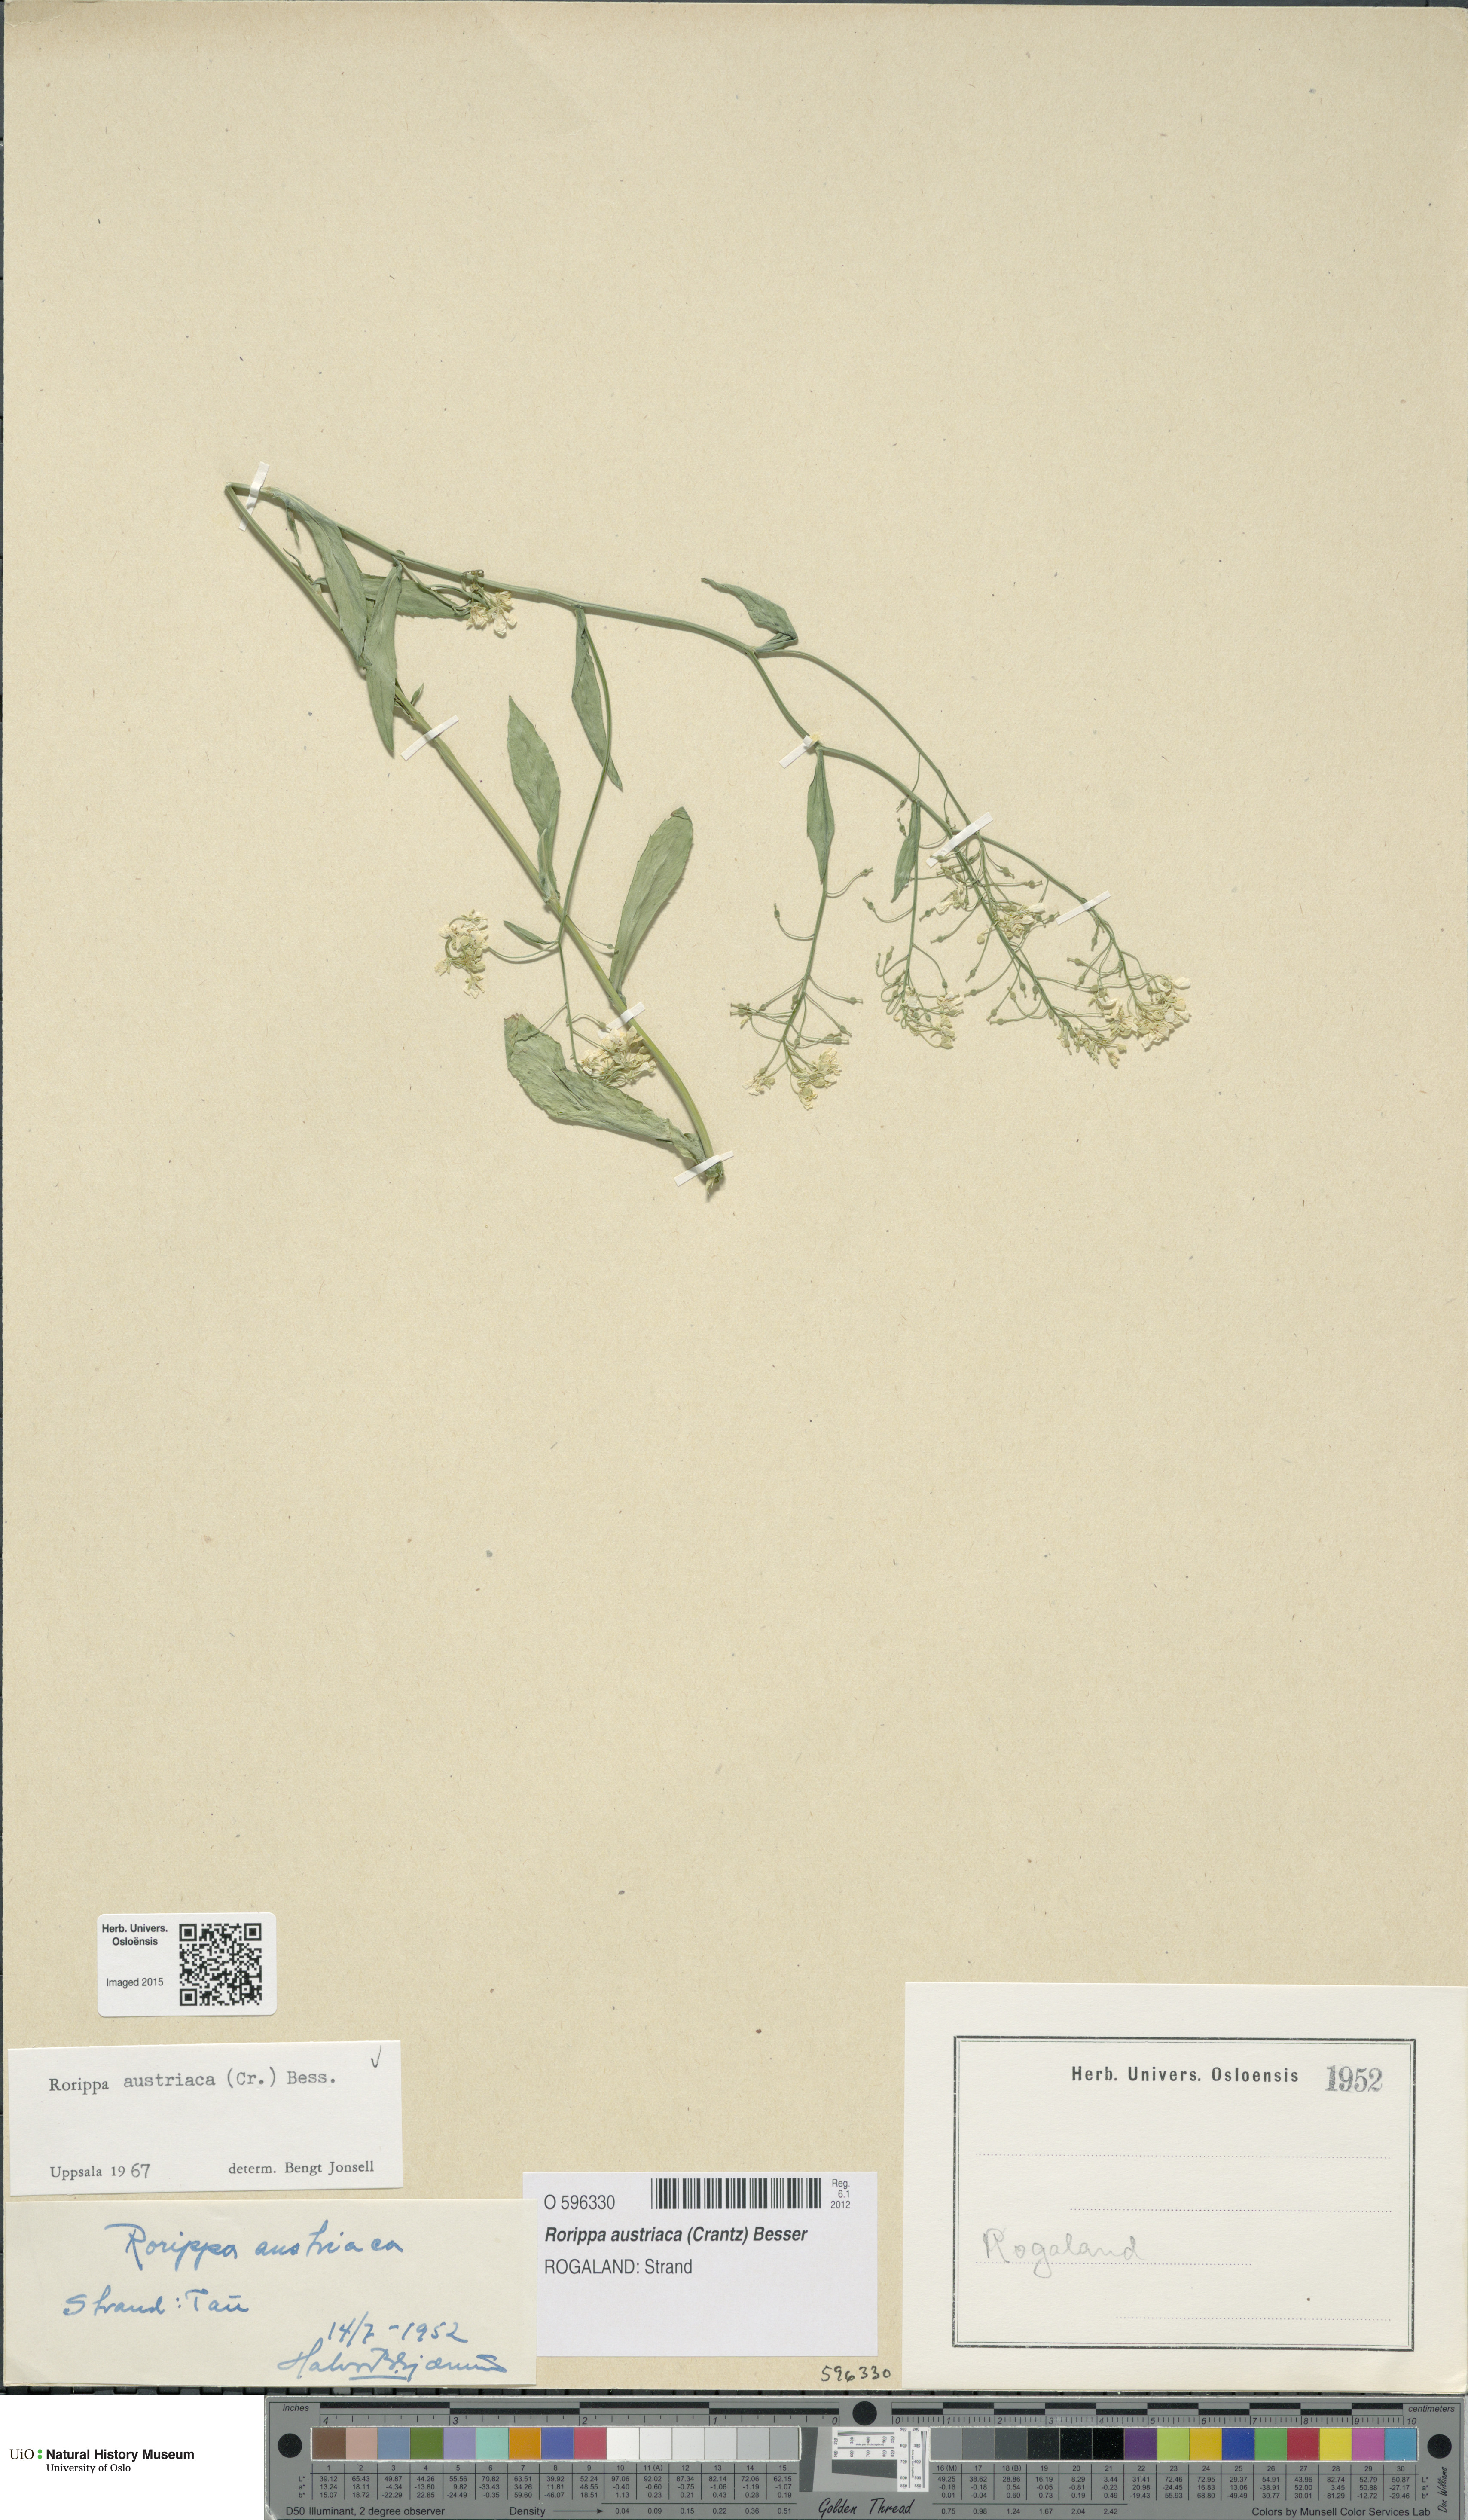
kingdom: Plantae
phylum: Tracheophyta
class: Magnoliopsida
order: Brassicales
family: Brassicaceae
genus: Rorippa
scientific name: Rorippa austriaca
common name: Austrian yellow-cress
